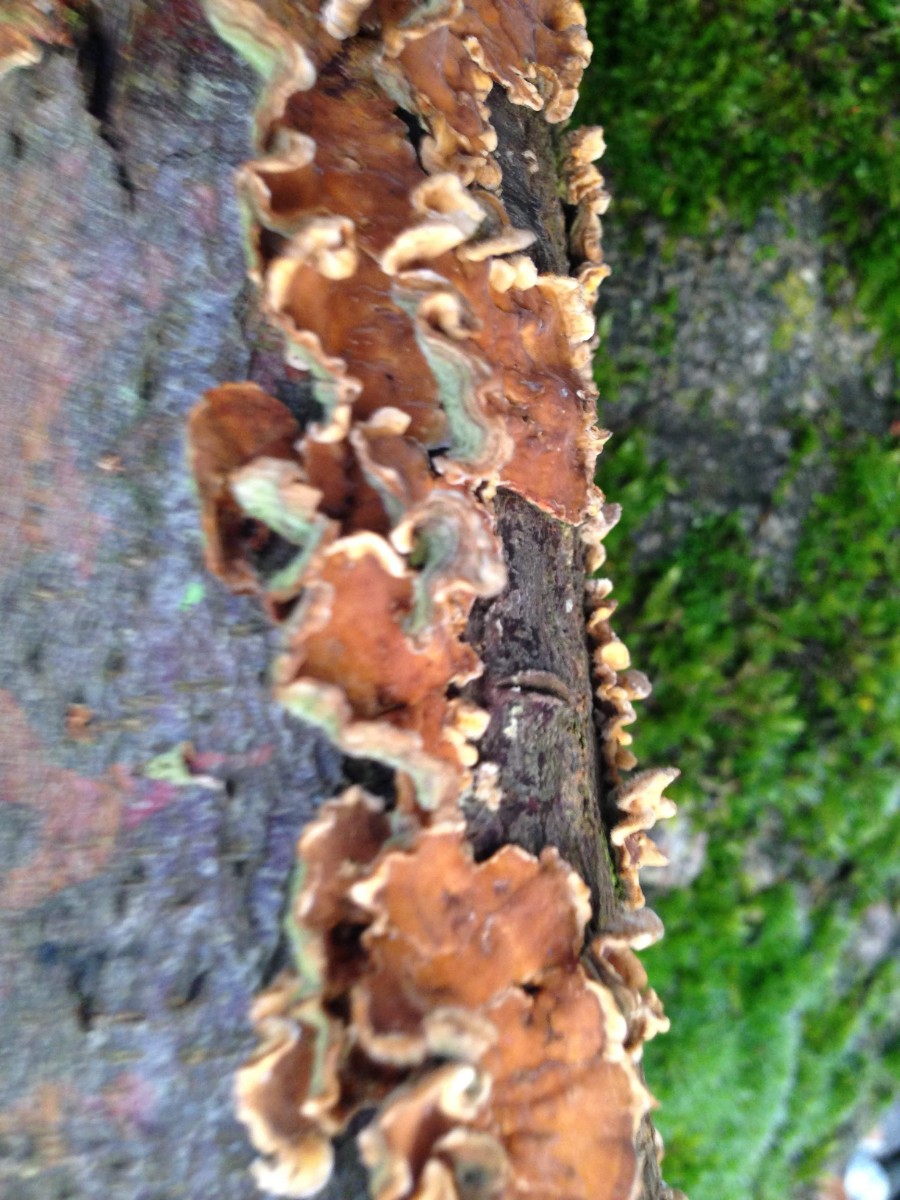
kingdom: Fungi
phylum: Basidiomycota
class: Agaricomycetes
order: Russulales
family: Stereaceae
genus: Stereum
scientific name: Stereum hirsutum
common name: håret lædersvamp
